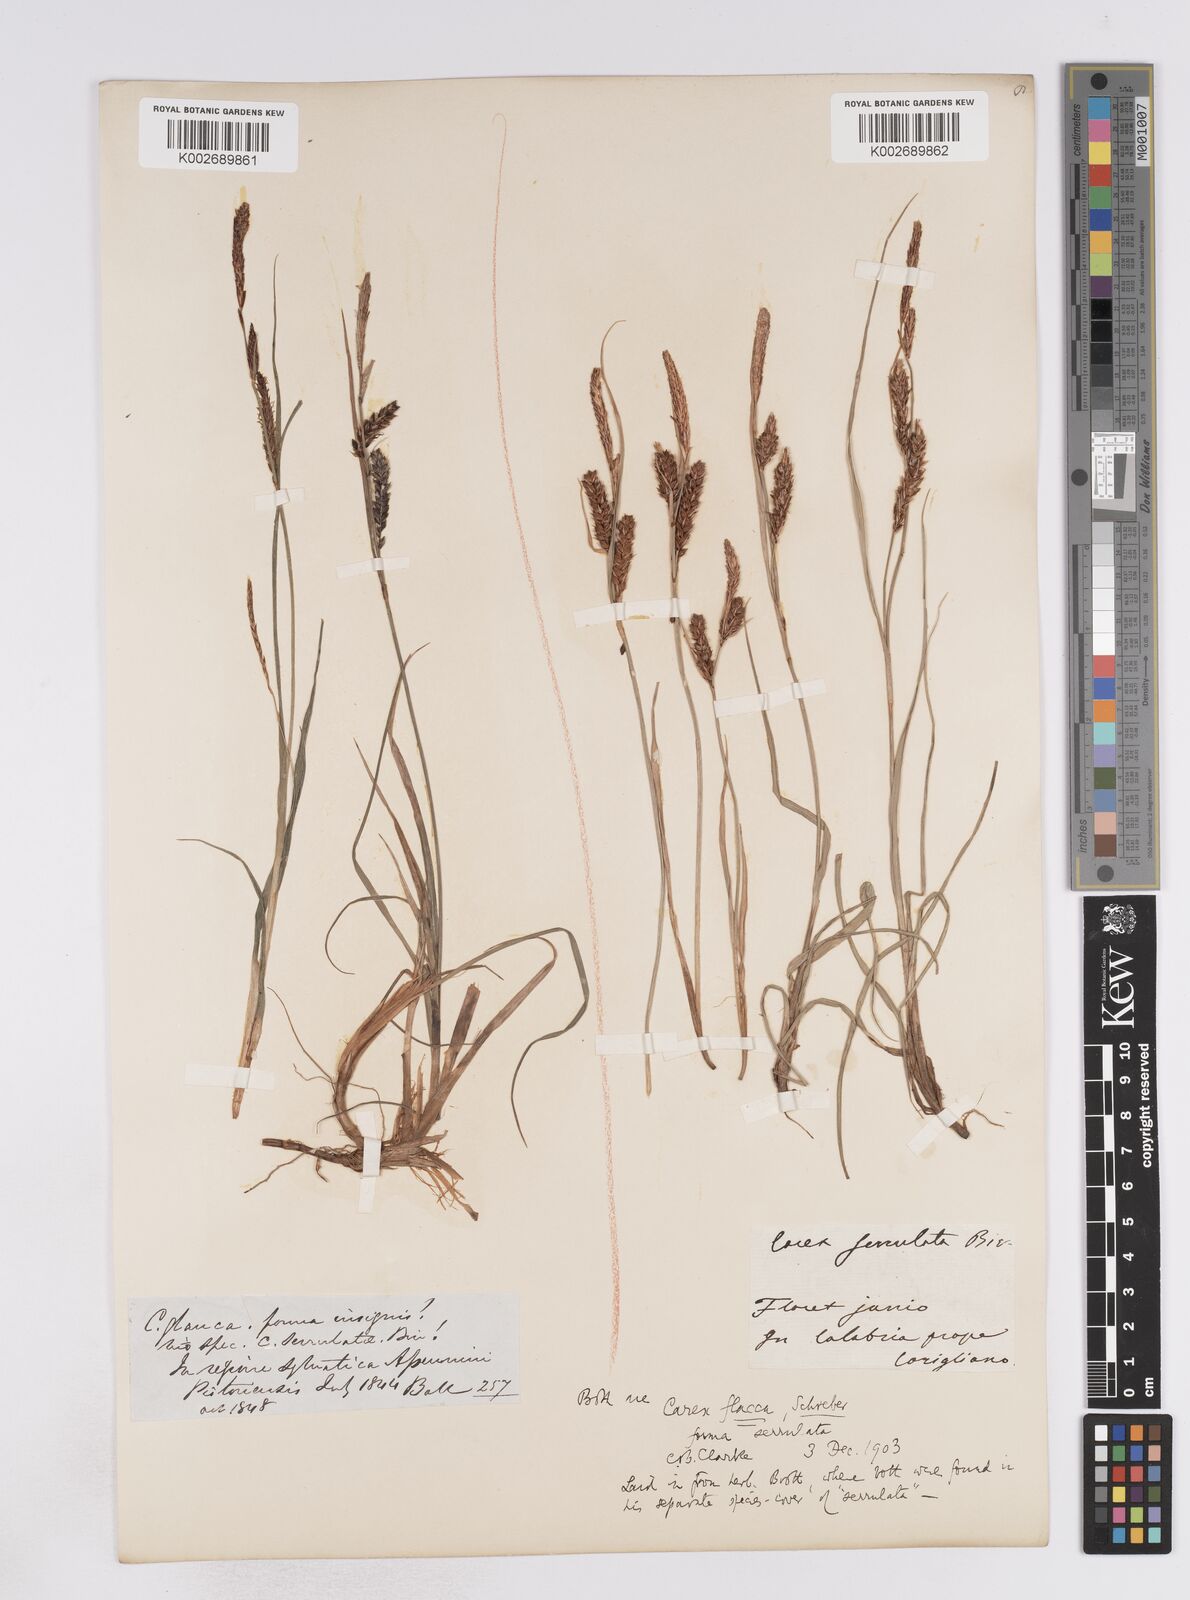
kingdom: Plantae
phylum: Tracheophyta
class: Liliopsida
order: Poales
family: Cyperaceae
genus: Carex
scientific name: Carex flacca
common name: Glaucous sedge
